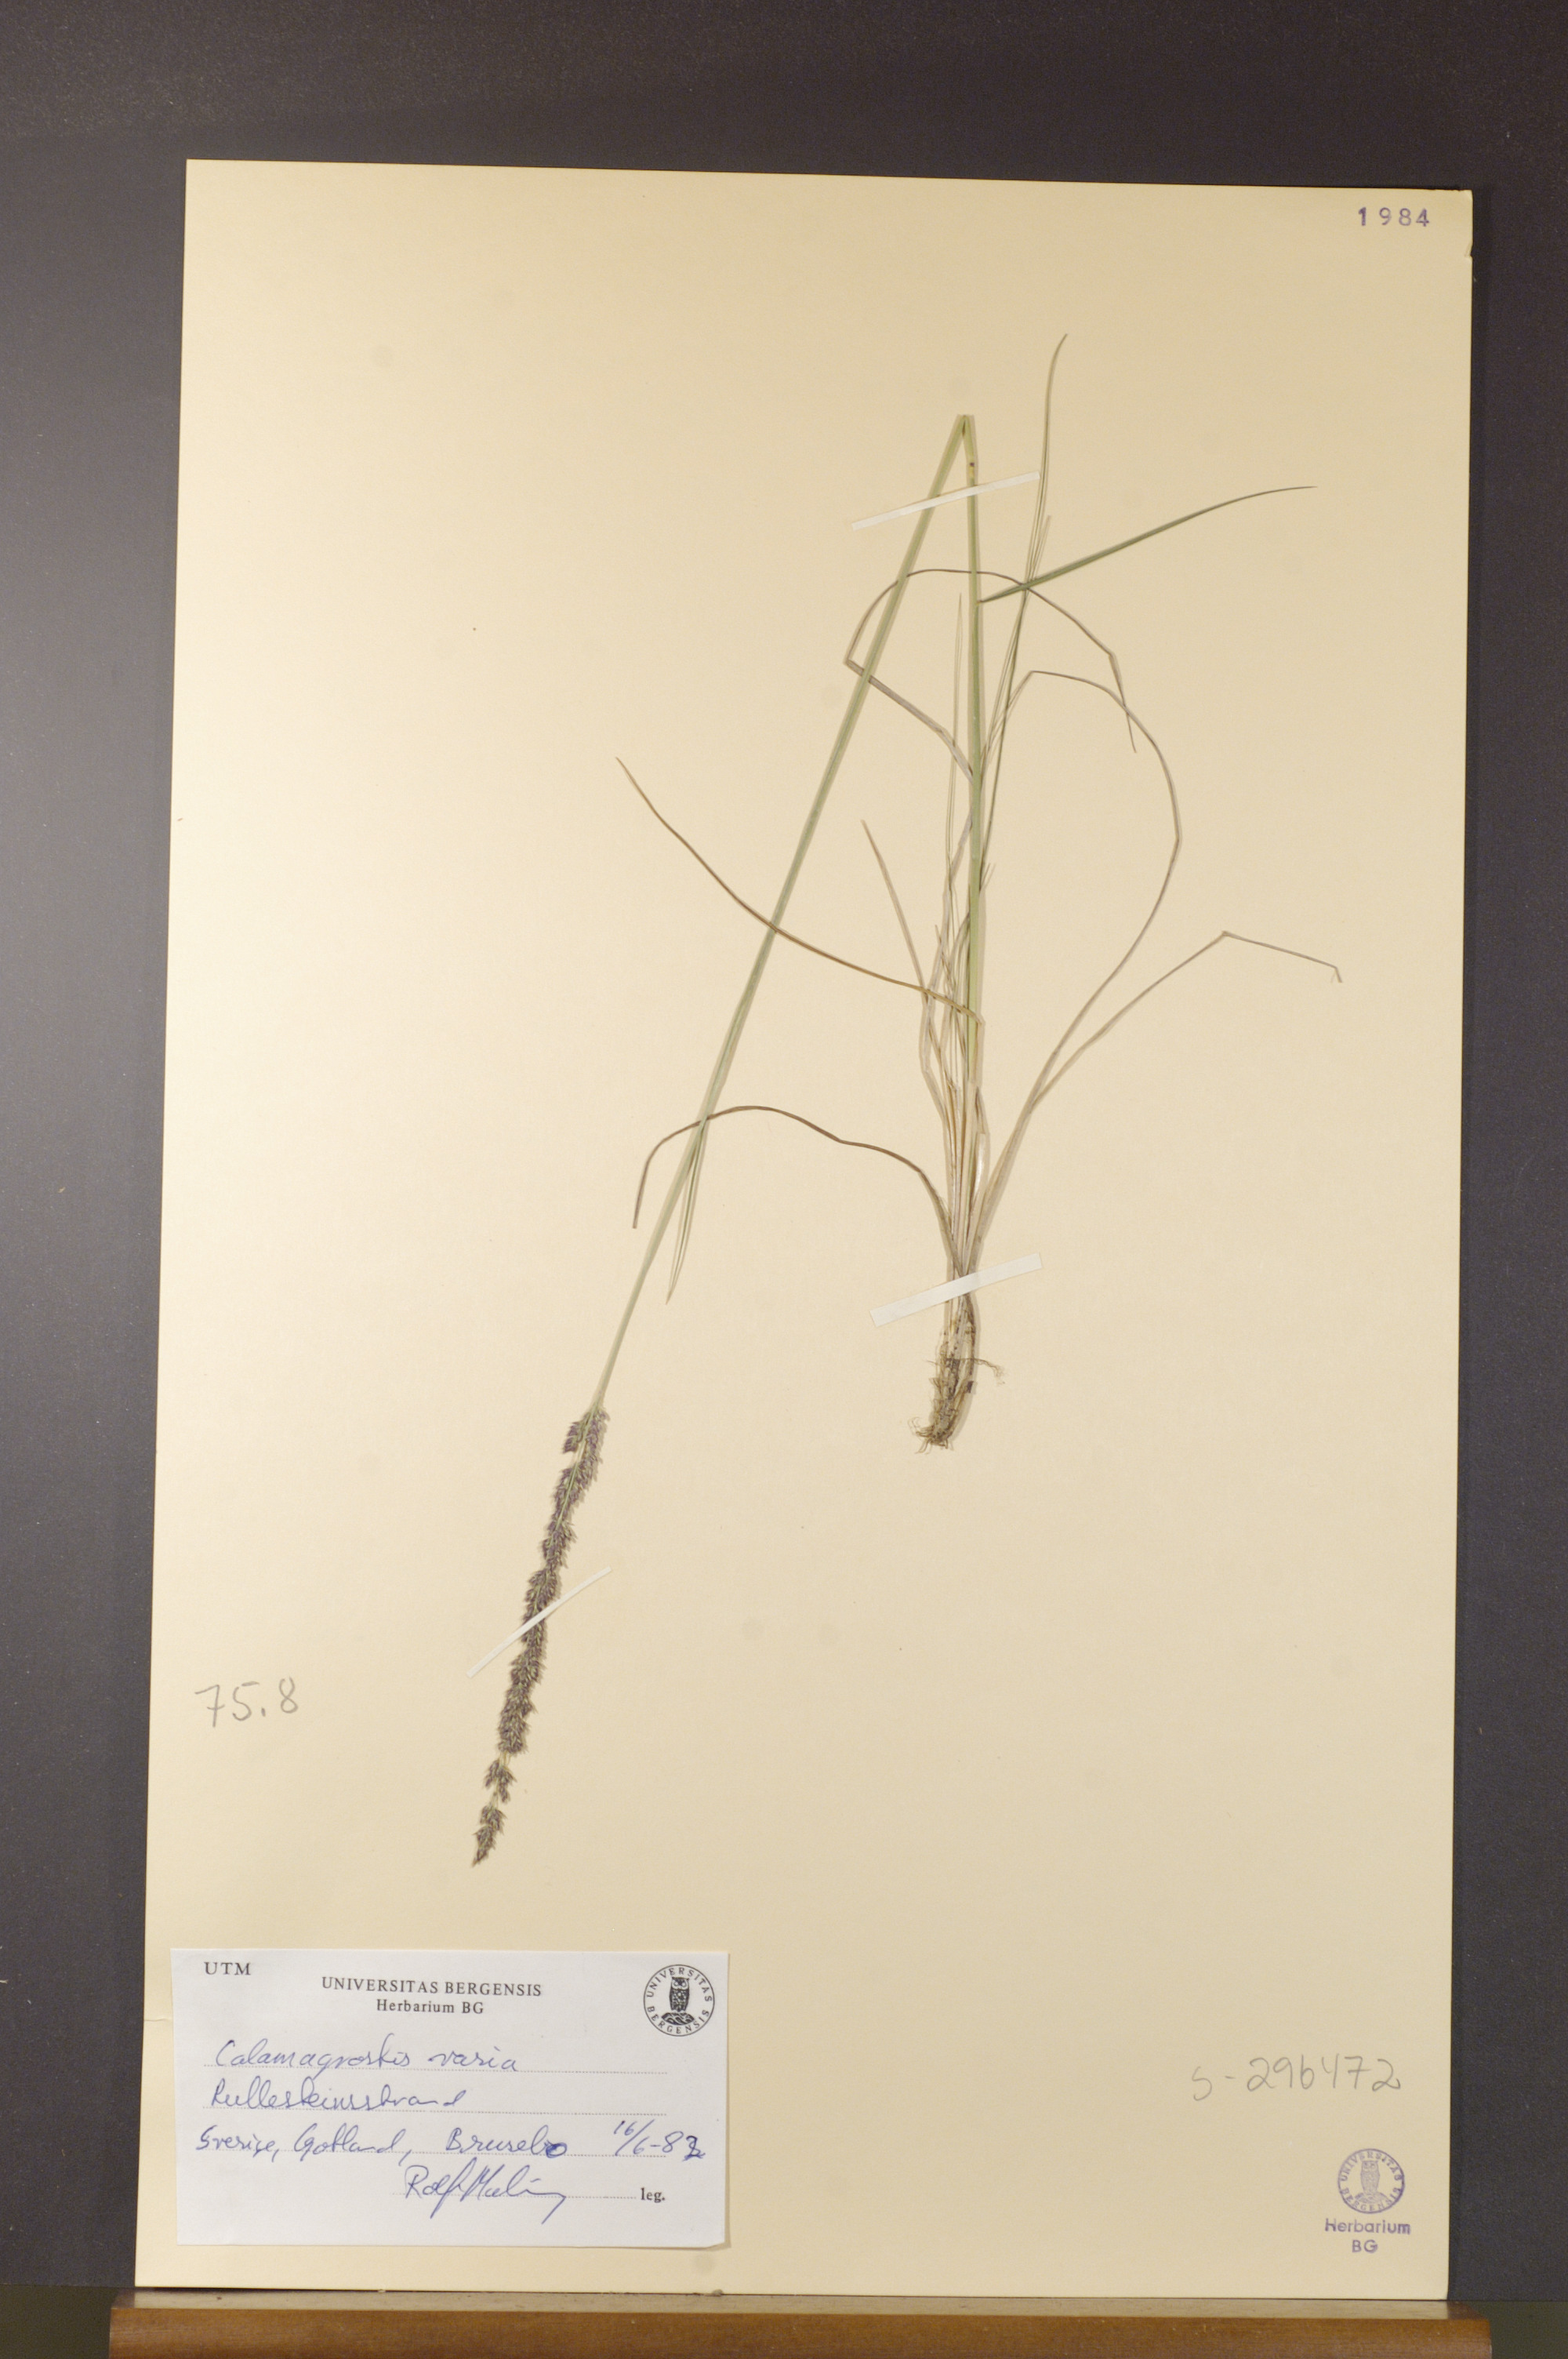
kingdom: Plantae
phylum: Tracheophyta
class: Liliopsida
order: Poales
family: Poaceae
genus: Calamagrostis
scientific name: Calamagrostis varia
